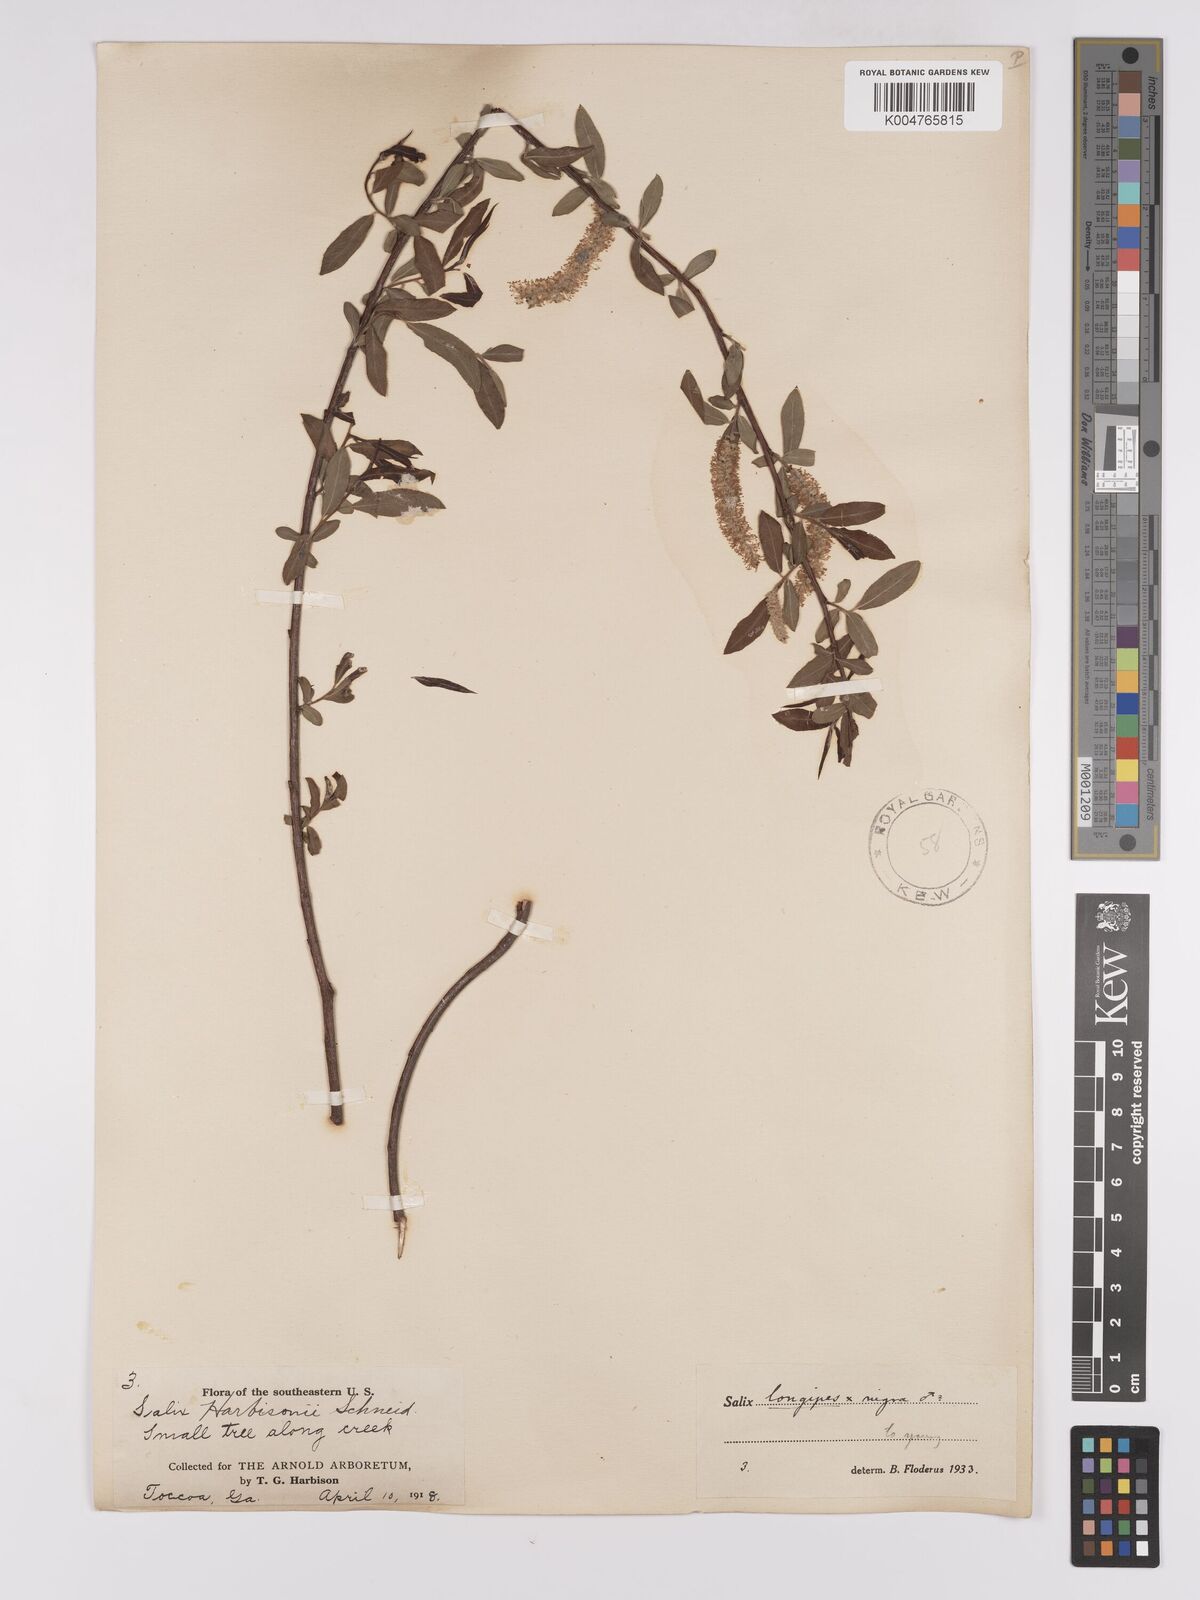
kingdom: Plantae
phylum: Tracheophyta
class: Magnoliopsida
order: Malpighiales
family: Salicaceae
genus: Salix
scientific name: Salix fruticulosa
